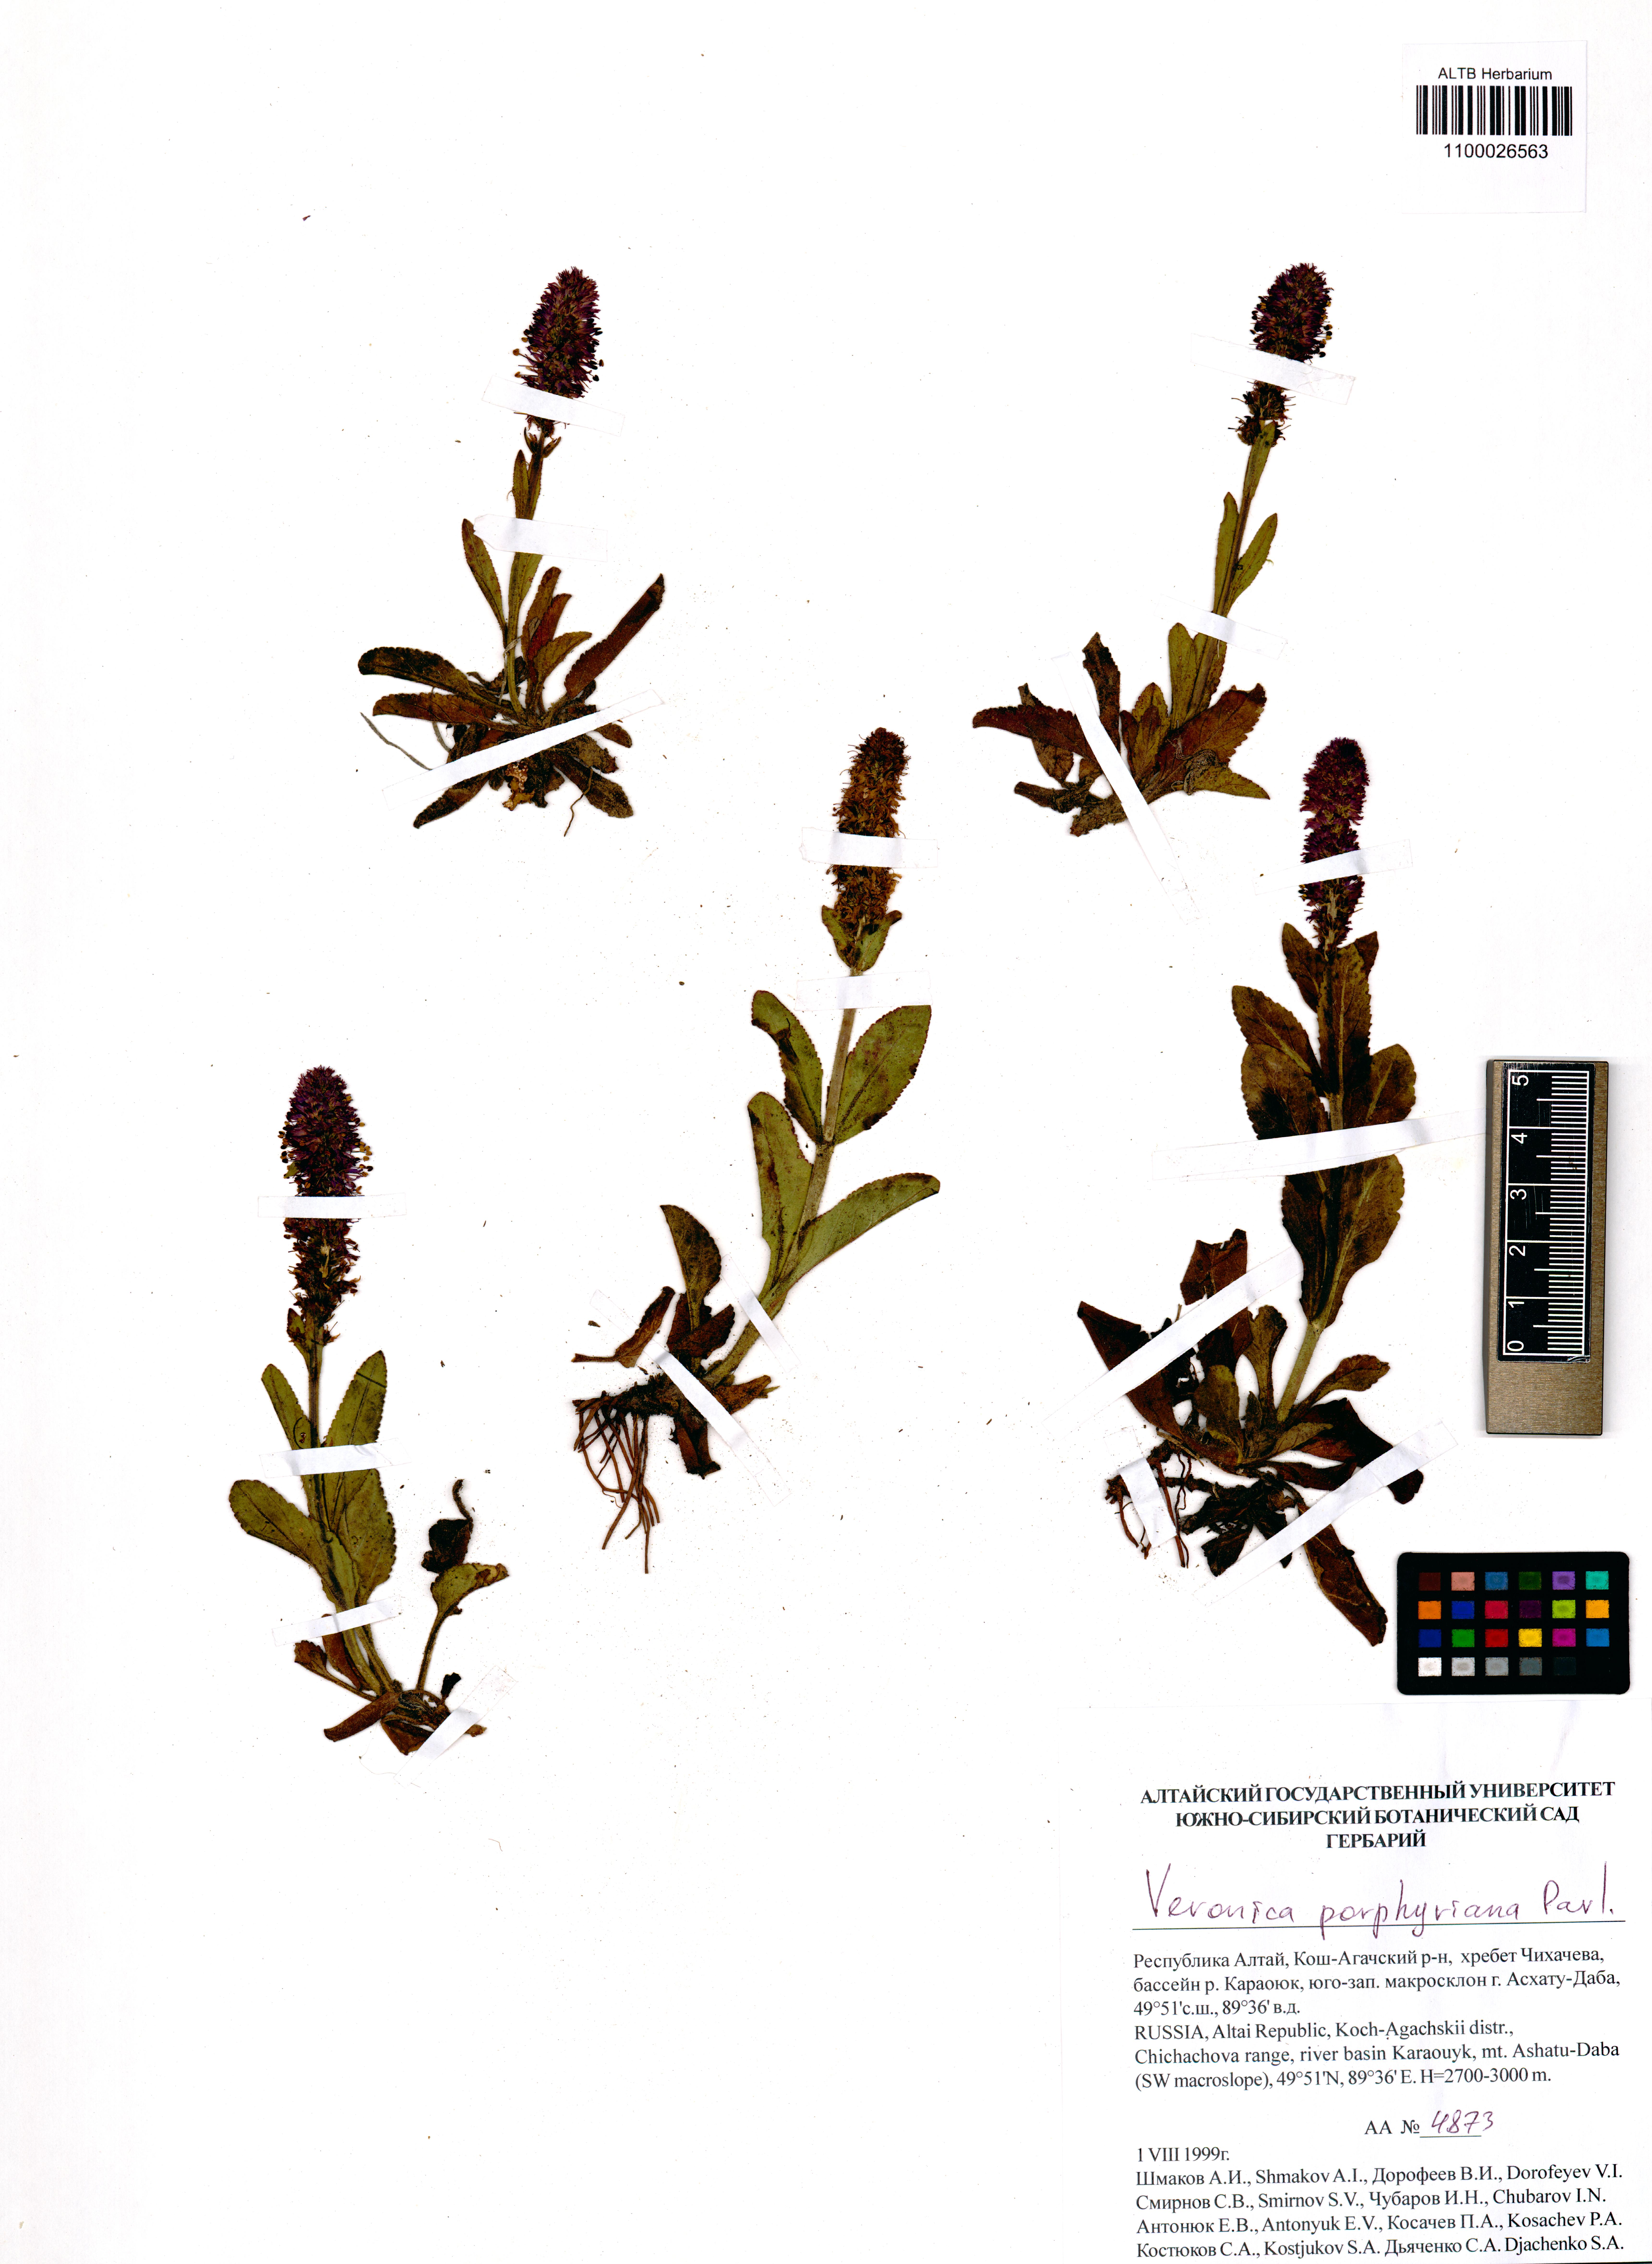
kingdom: Plantae
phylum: Tracheophyta
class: Magnoliopsida
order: Lamiales
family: Plantaginaceae
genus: Veronica
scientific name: Veronica porphyriana
